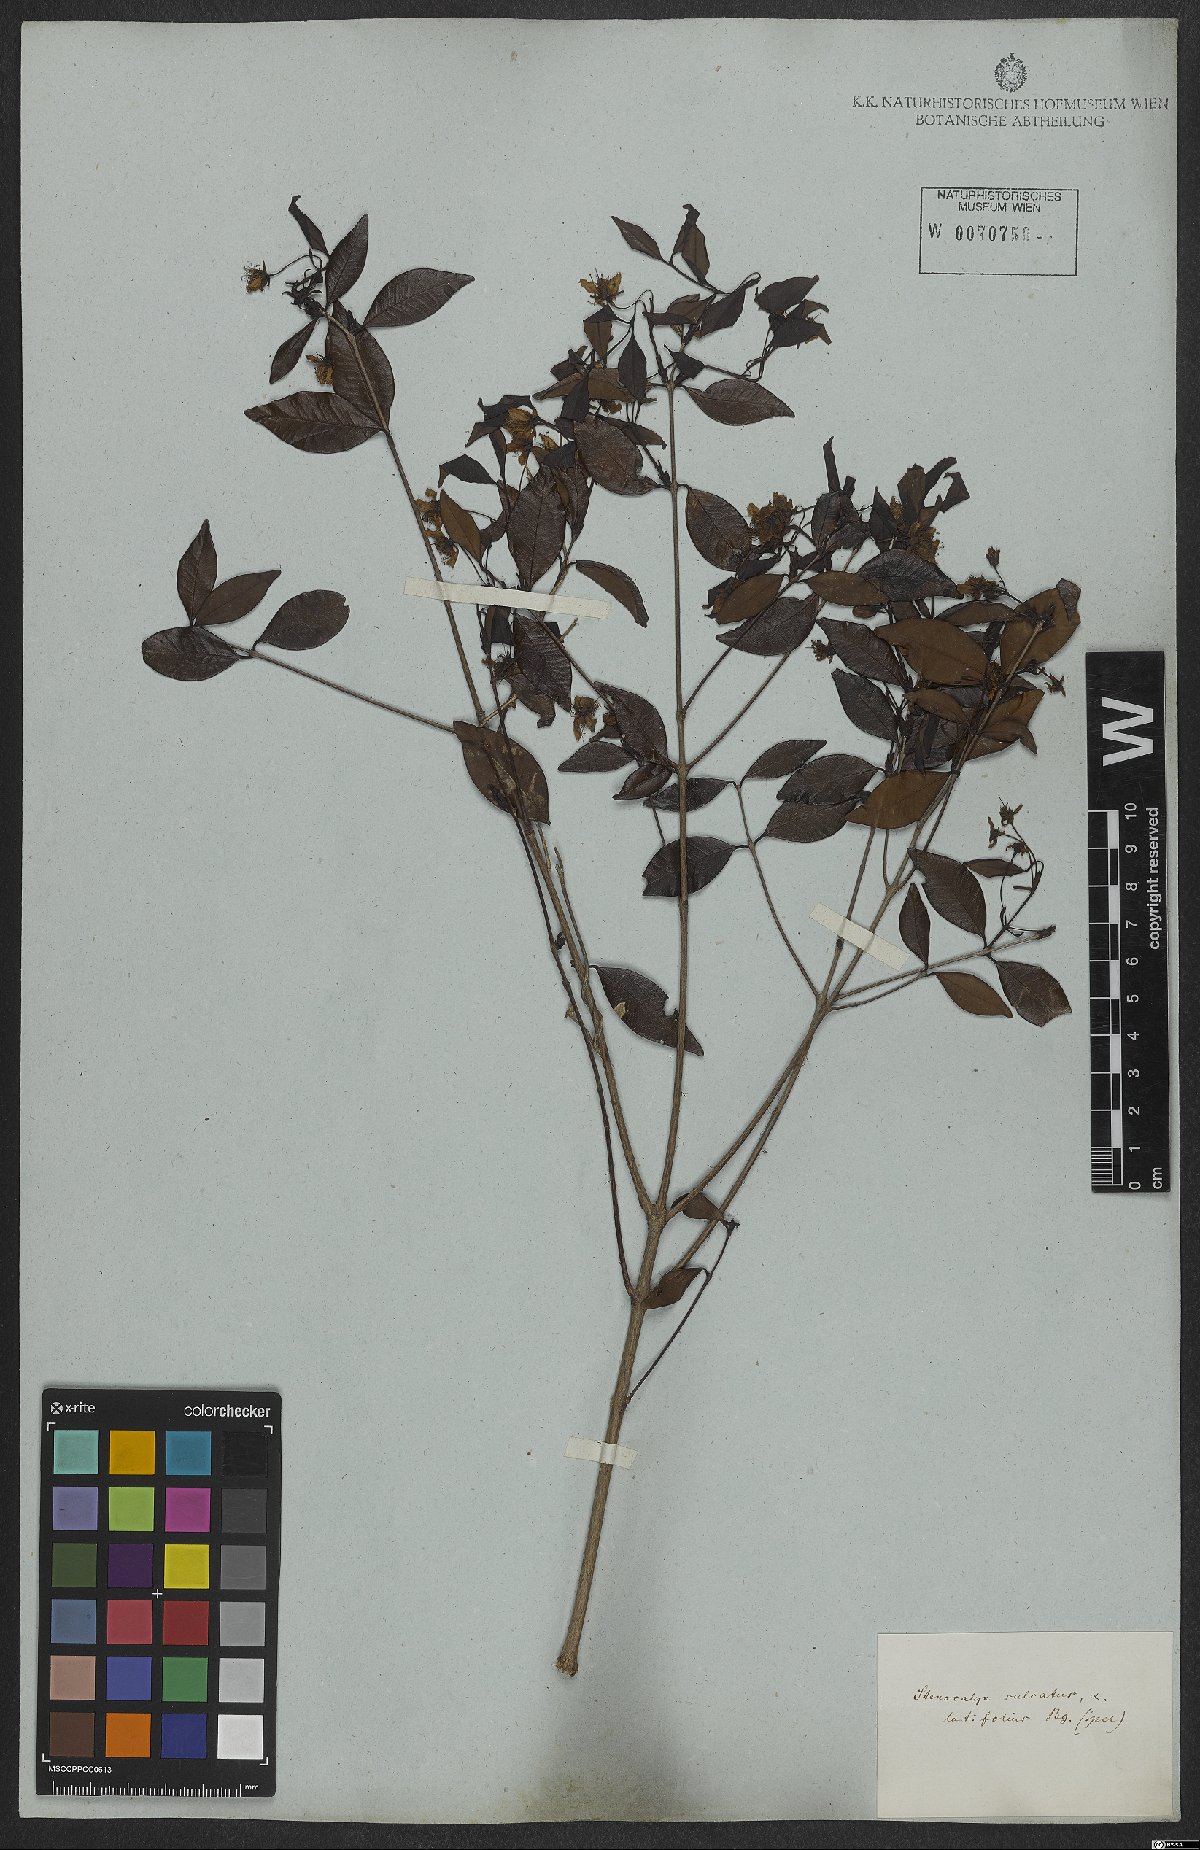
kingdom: Plantae
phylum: Tracheophyta
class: Magnoliopsida
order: Myrtales
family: Myrtaceae
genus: Eugenia
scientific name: Eugenia sulcata
